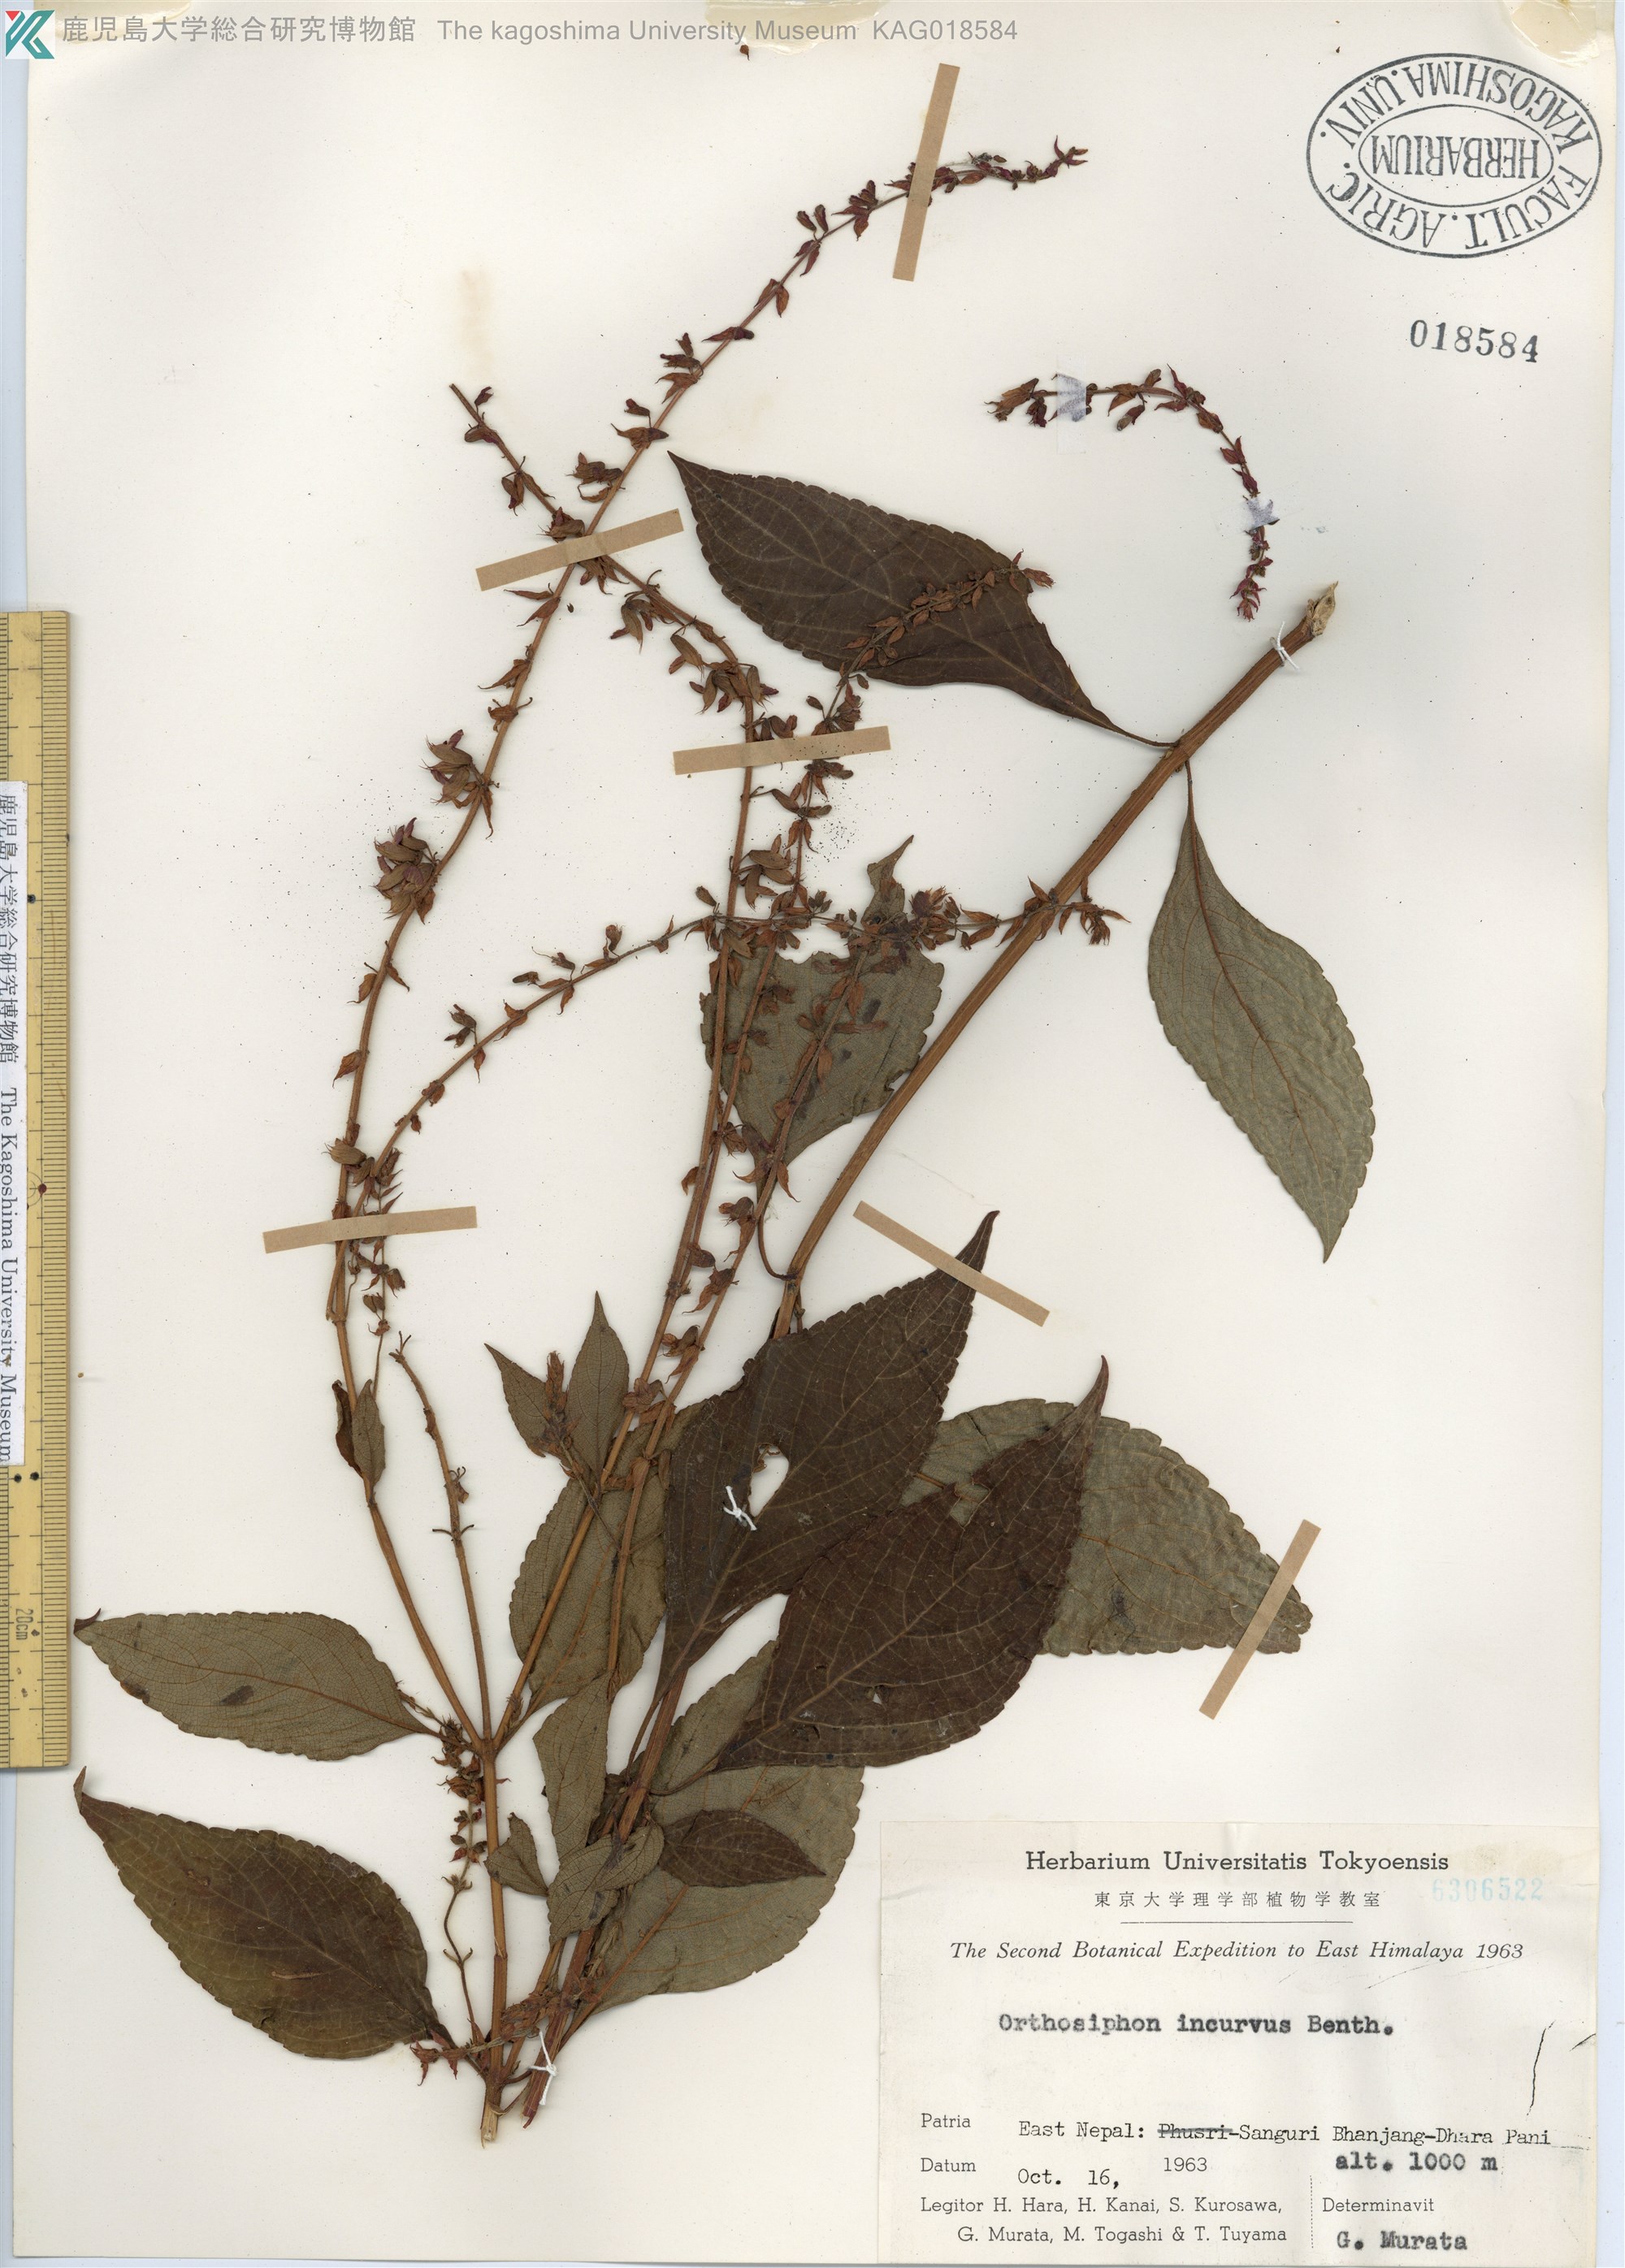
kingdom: Plantae
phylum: Tracheophyta
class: Magnoliopsida
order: Lamiales
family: Lamiaceae
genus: Orthosiphon
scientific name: Orthosiphon incurvus
